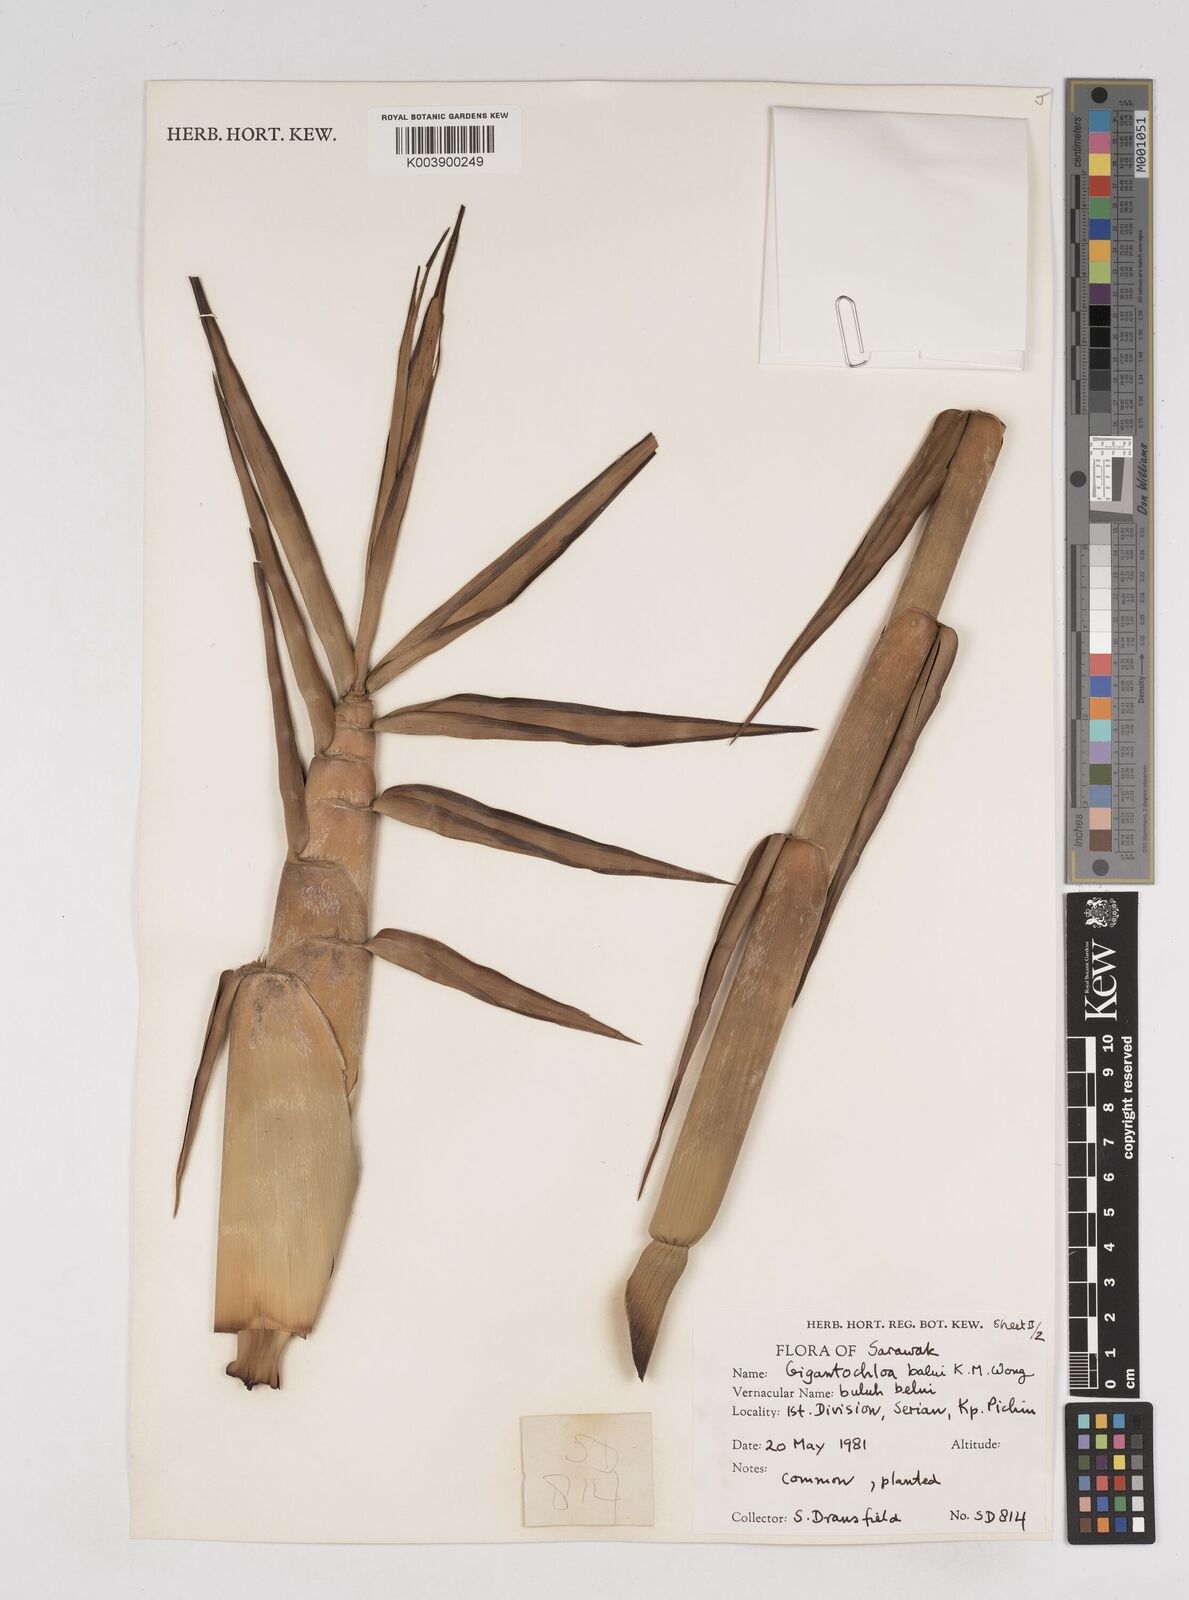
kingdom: Plantae
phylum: Tracheophyta
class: Liliopsida
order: Poales
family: Poaceae
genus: Gigantochloa
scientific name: Gigantochloa
